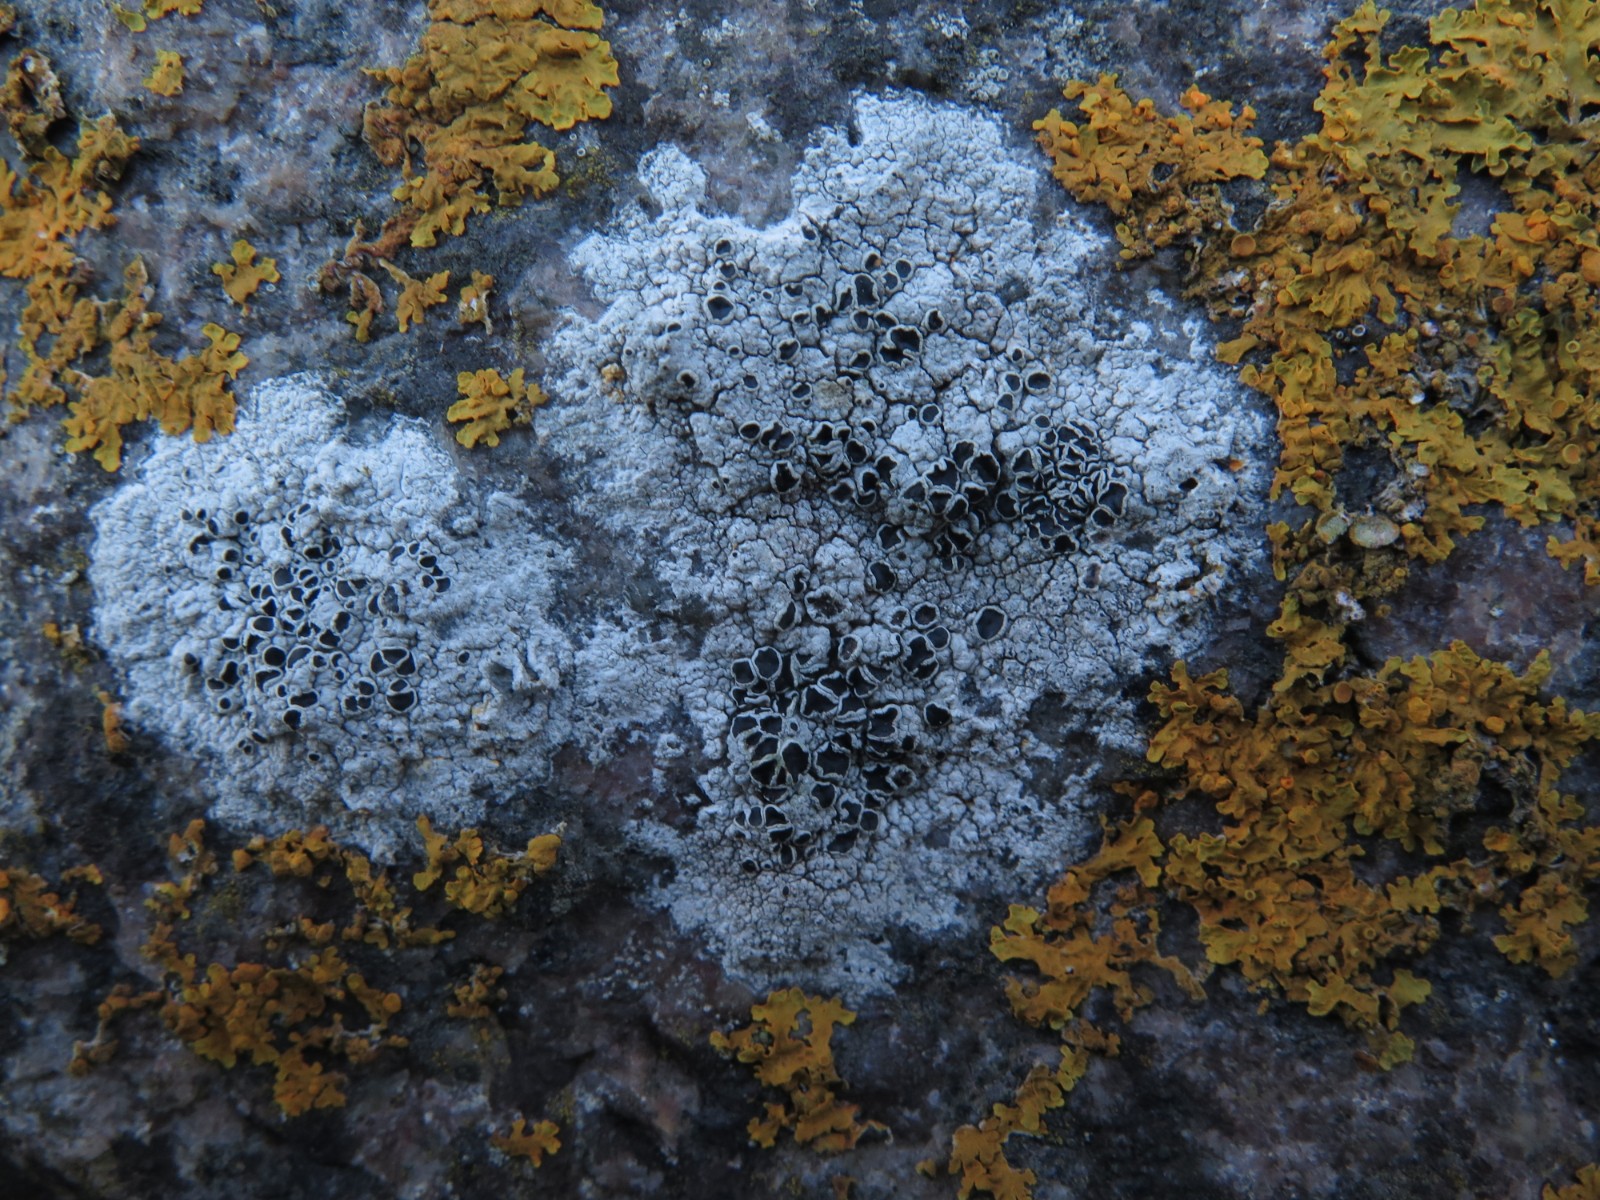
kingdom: Fungi
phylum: Ascomycota
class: Lecanoromycetes
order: Lecanorales
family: Tephromelataceae
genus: Tephromela
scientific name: Tephromela atra
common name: sortfrugtet kantskivelav
